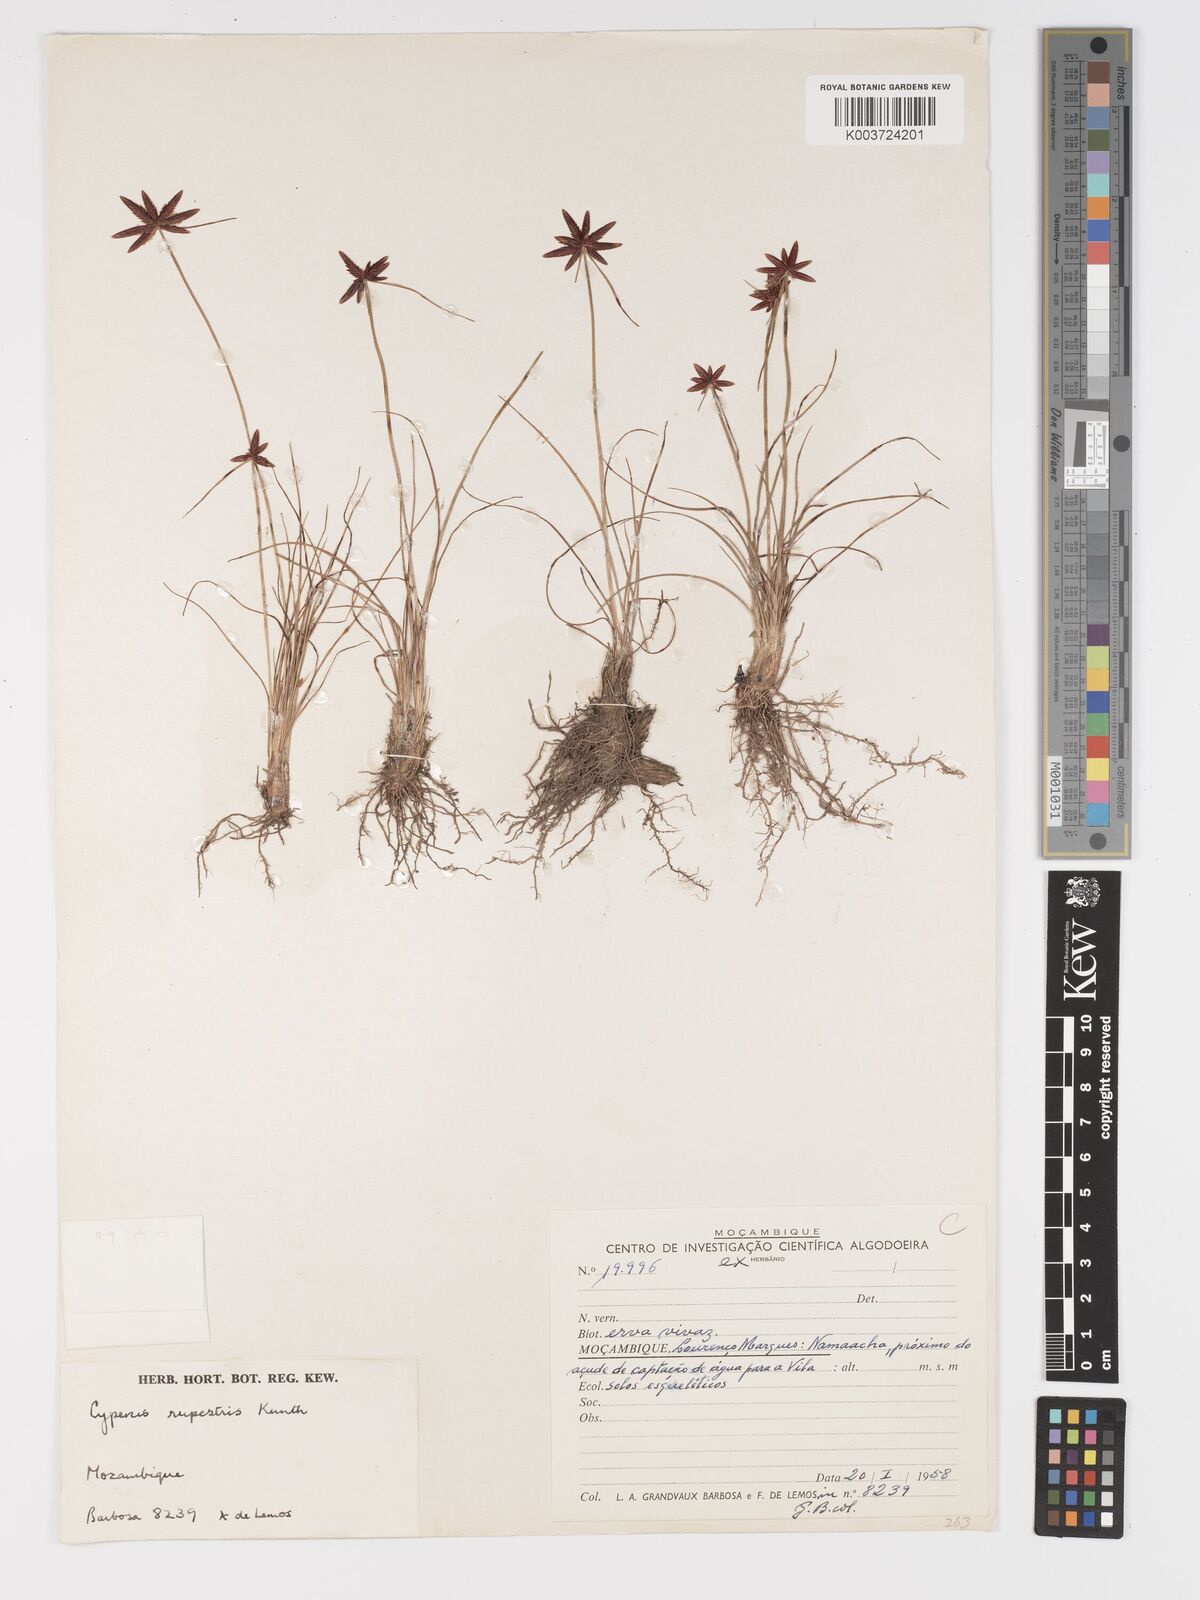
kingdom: Plantae
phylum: Tracheophyta
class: Liliopsida
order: Poales
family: Cyperaceae
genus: Cyperus
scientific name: Cyperus semitrifidus
